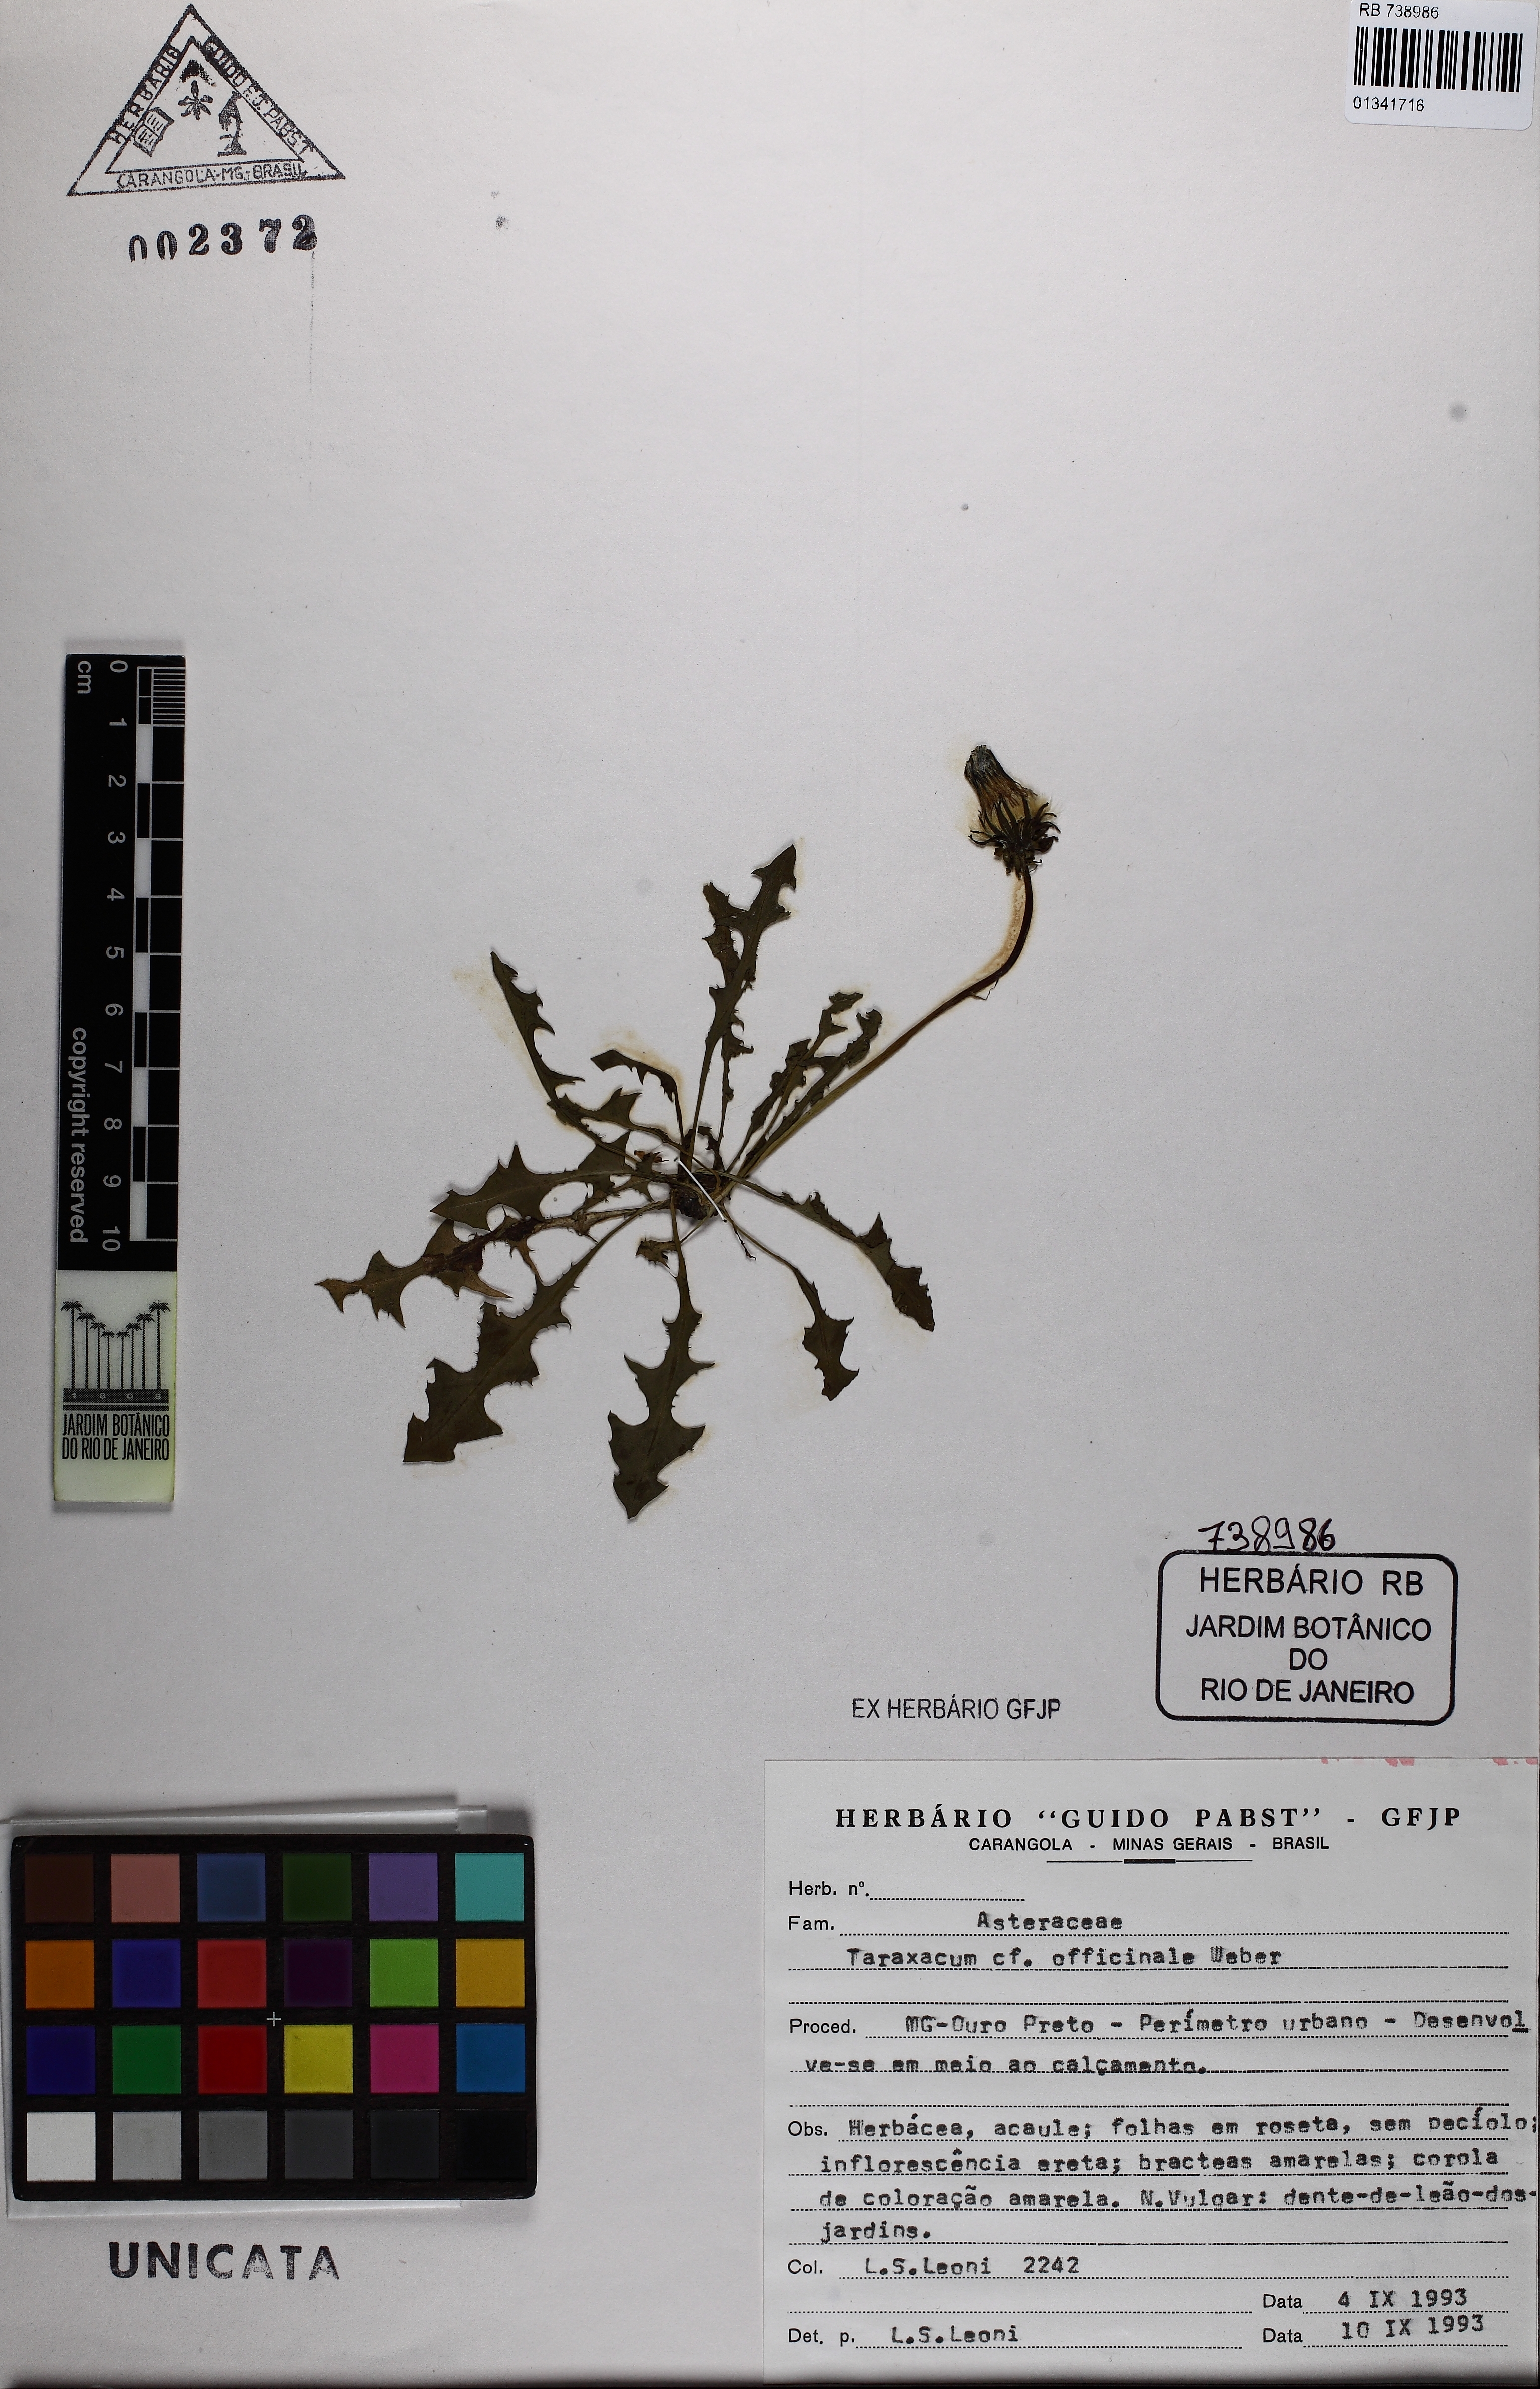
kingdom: Plantae
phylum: Tracheophyta
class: Magnoliopsida
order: Asterales
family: Asteraceae
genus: Taraxacum
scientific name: Taraxacum officinale
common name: Common dandelion
